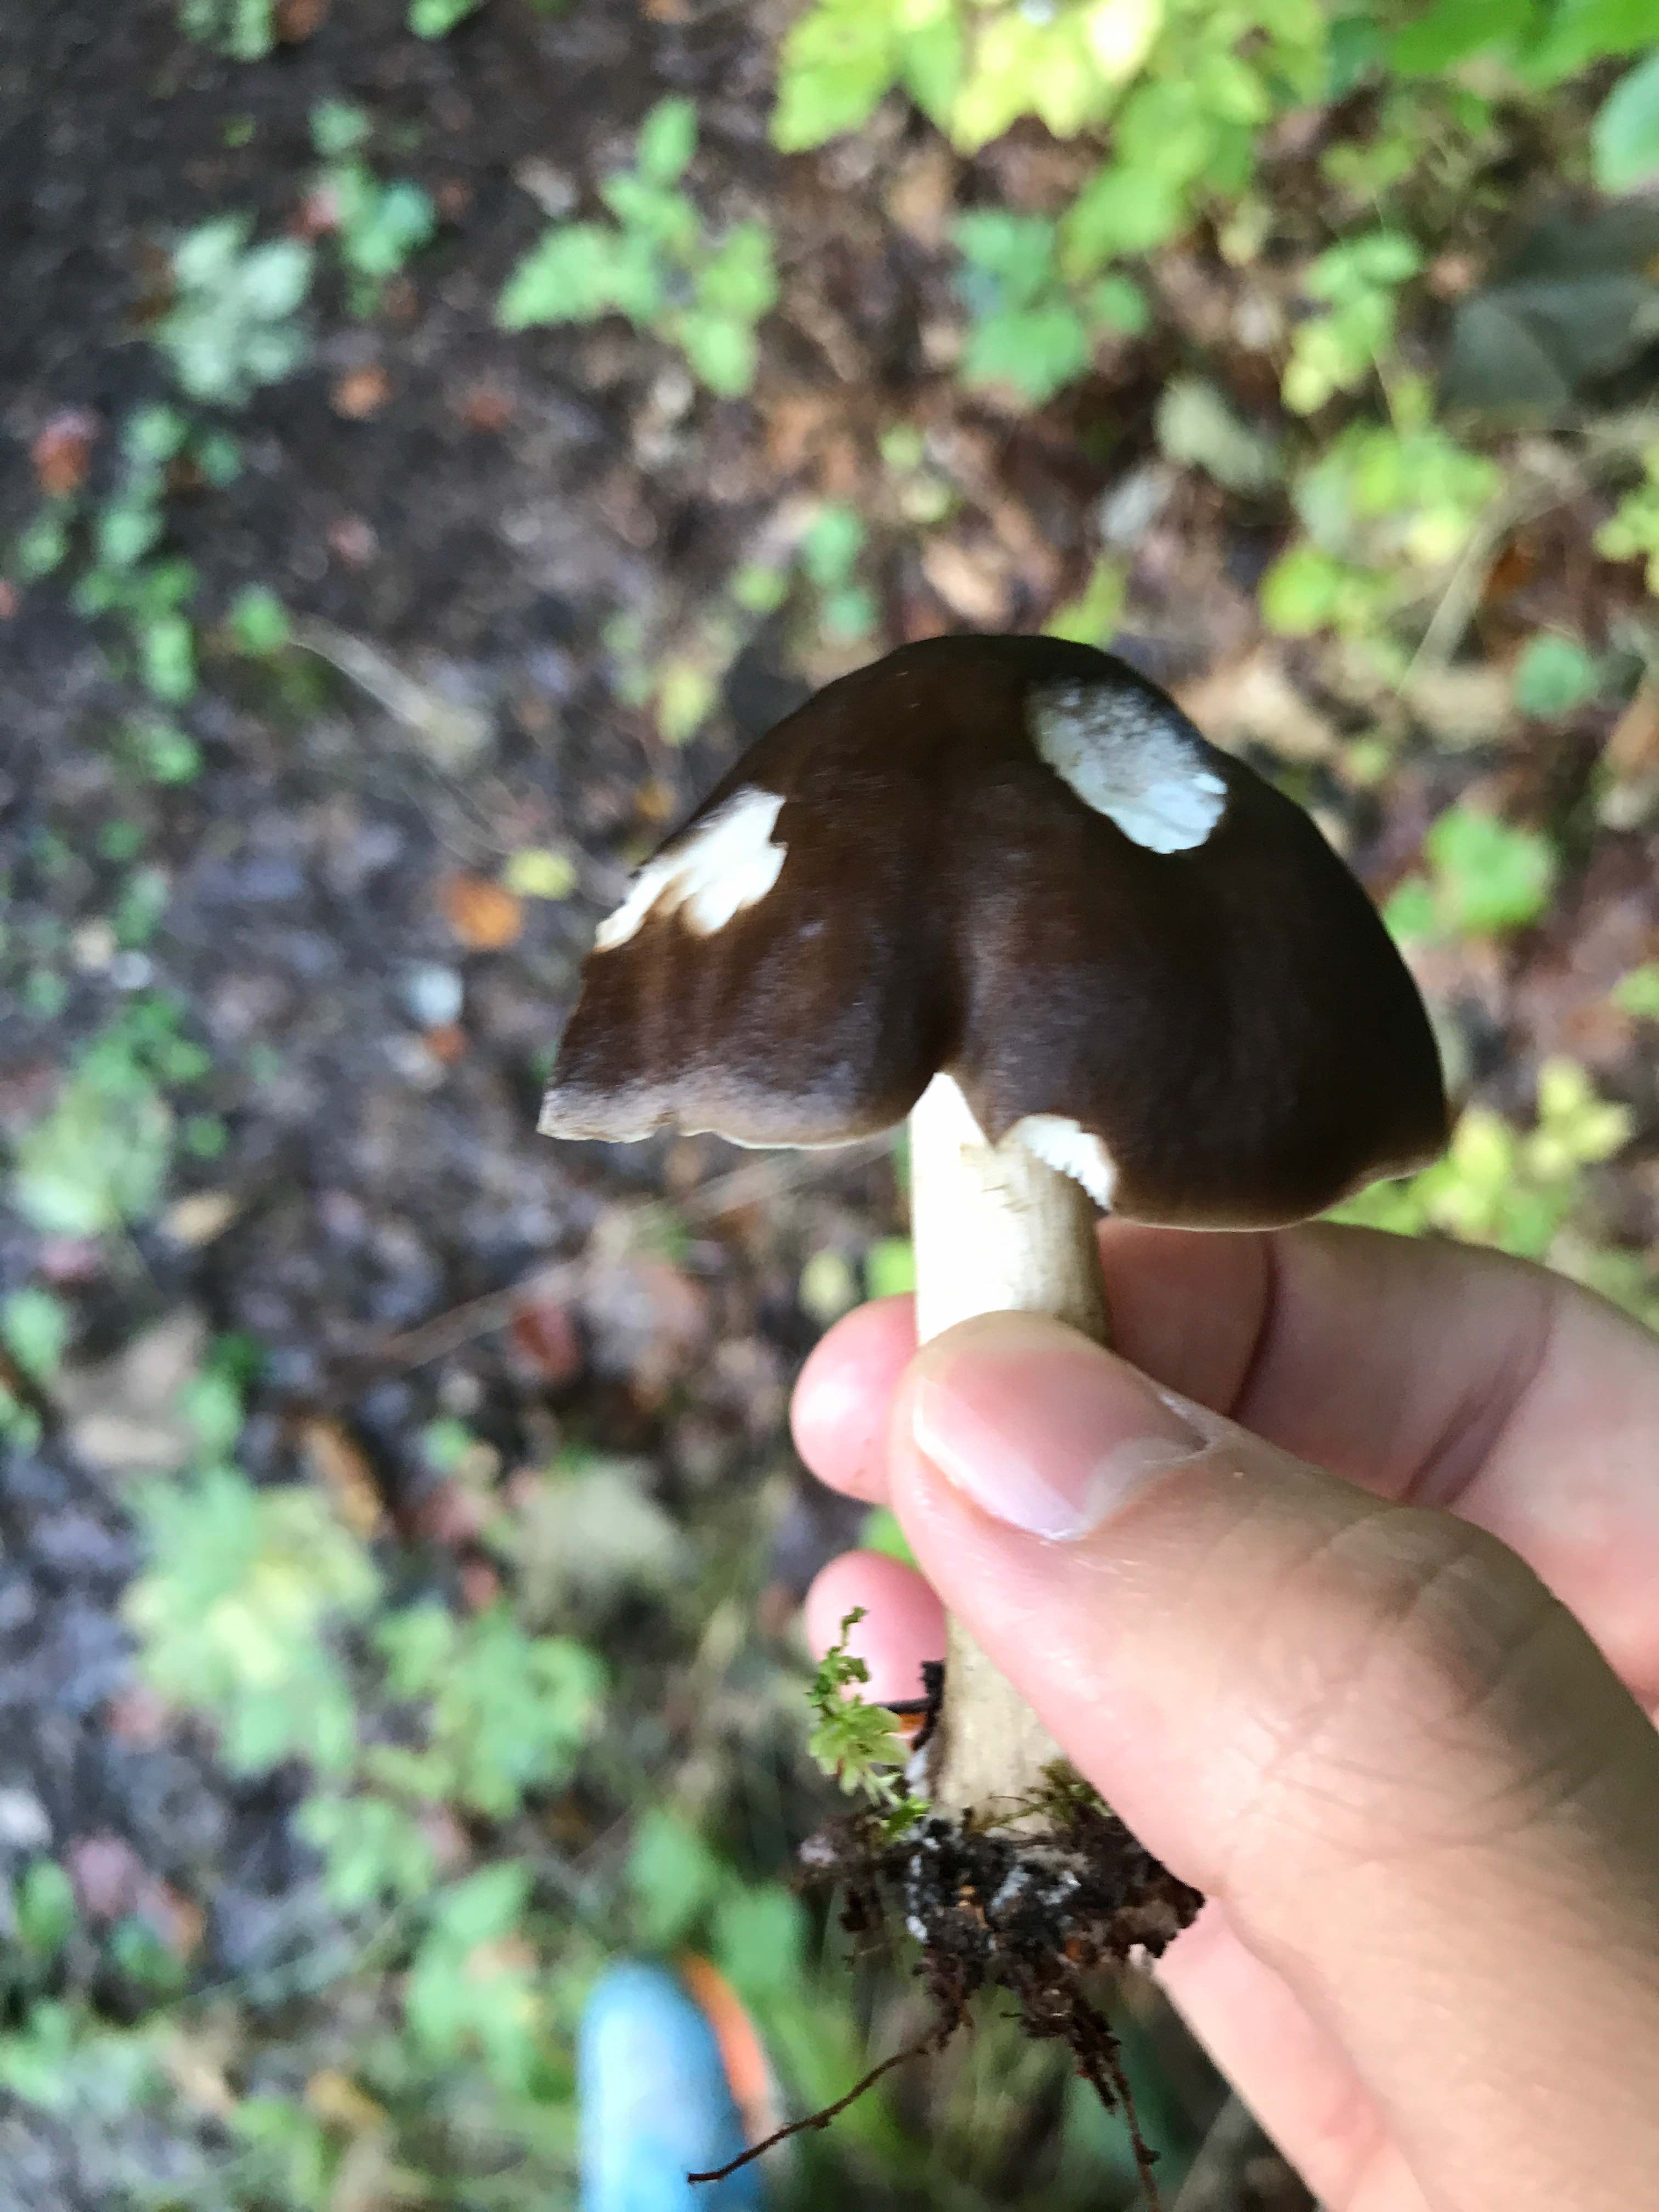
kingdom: Fungi
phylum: Basidiomycota
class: Agaricomycetes
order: Agaricales
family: Pluteaceae
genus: Pluteus
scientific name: Pluteus cervinus
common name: sodfarvet skærmhat
